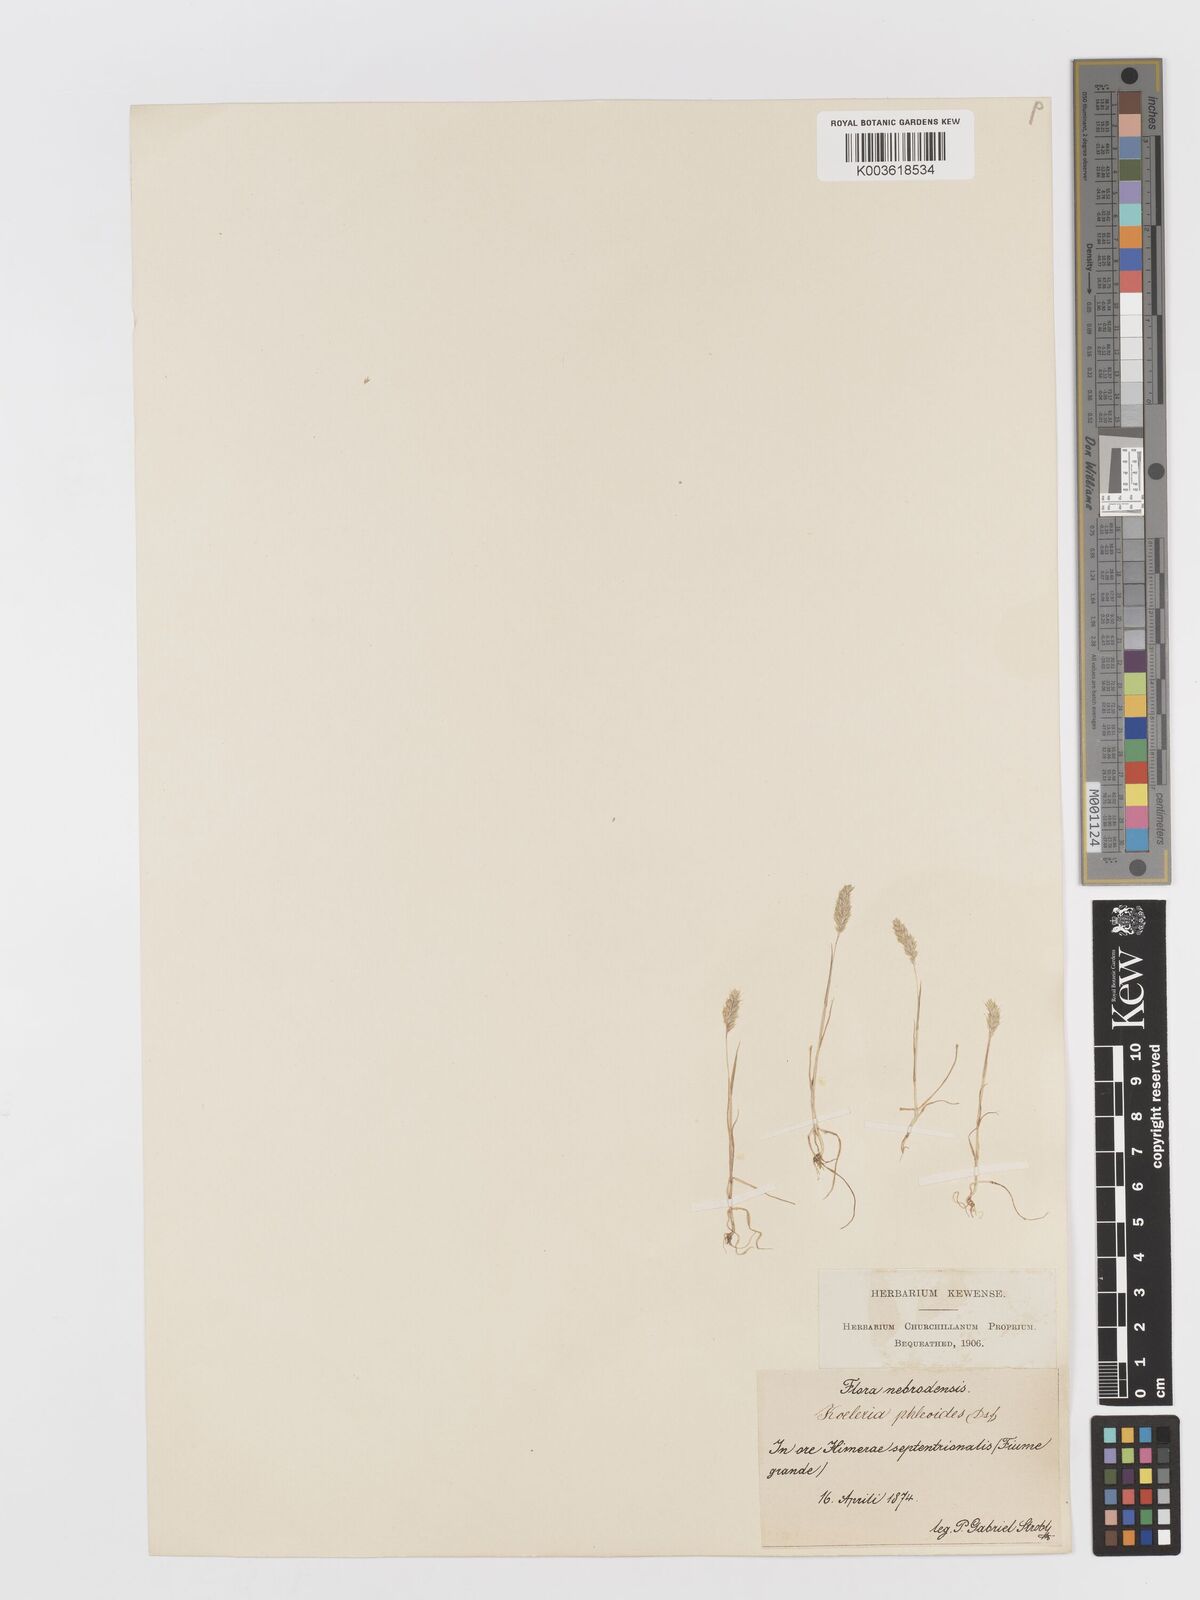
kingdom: Plantae
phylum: Tracheophyta
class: Liliopsida
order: Poales
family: Poaceae
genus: Rostraria
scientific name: Rostraria cristata
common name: Mediterranean hair-grass
